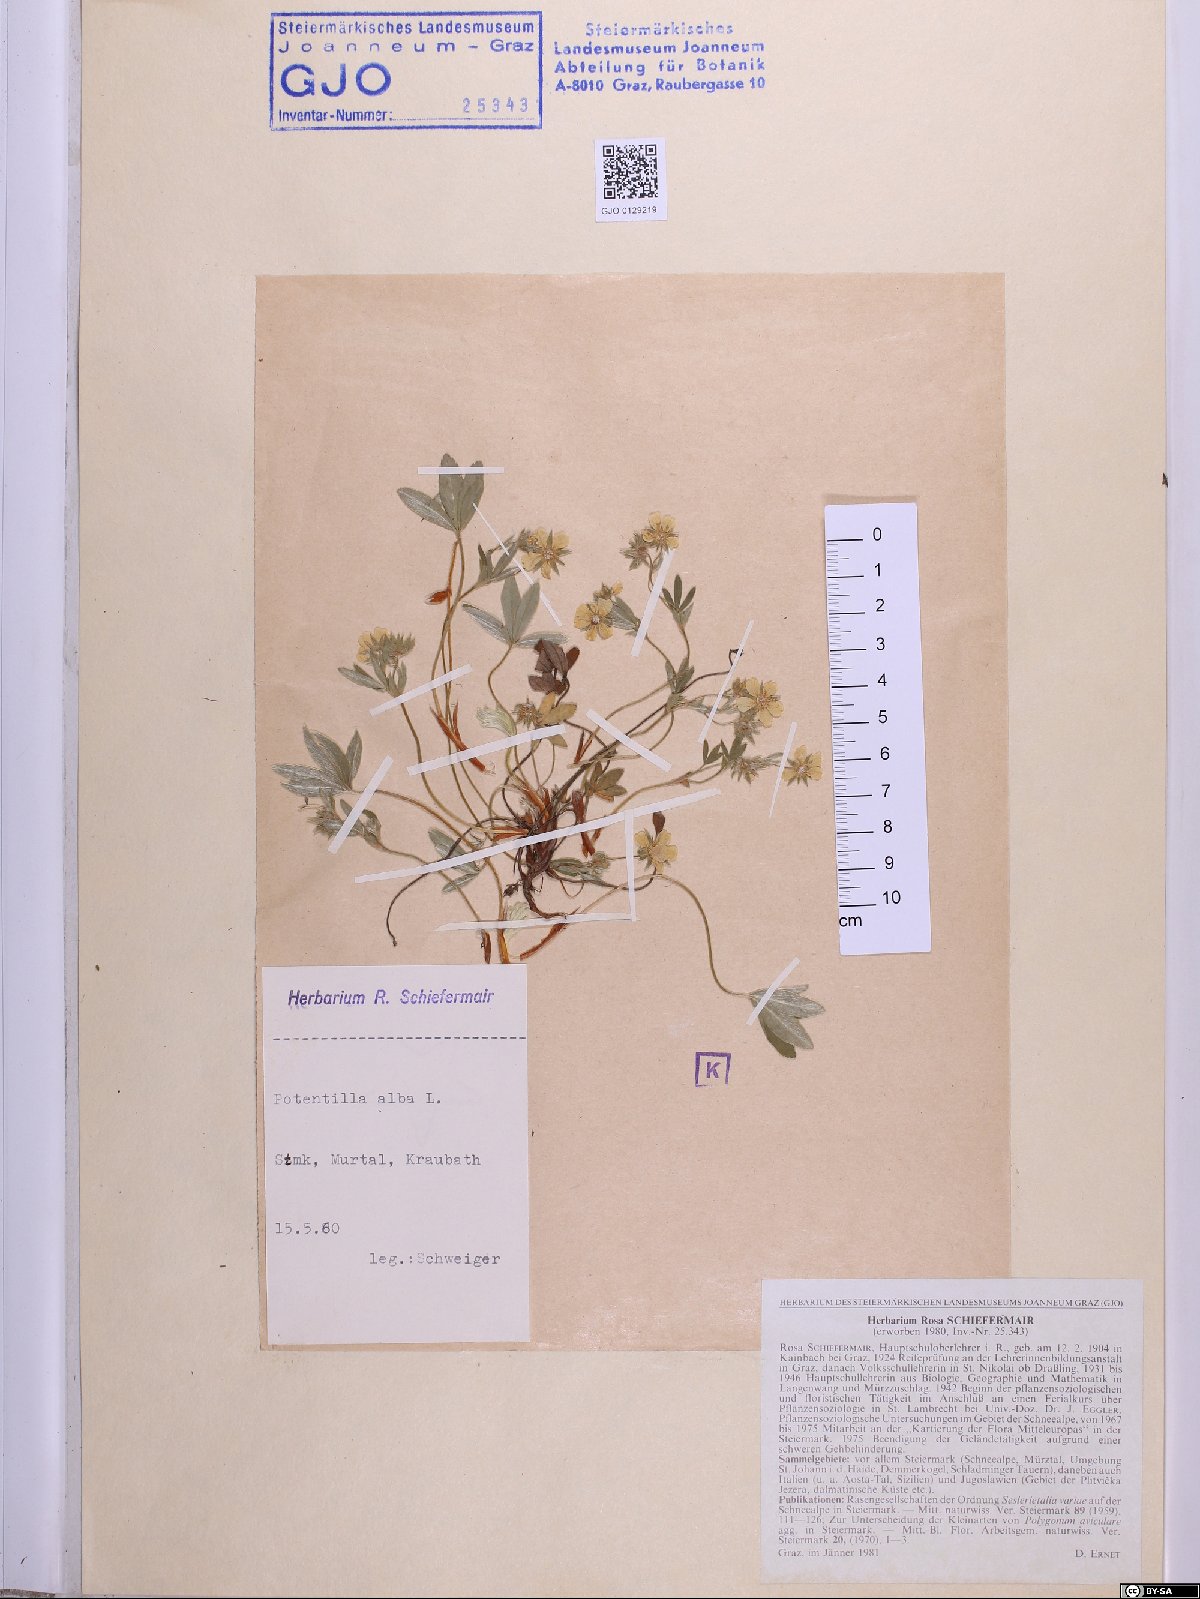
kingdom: Plantae
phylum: Tracheophyta
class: Magnoliopsida
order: Rosales
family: Rosaceae
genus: Potentilla
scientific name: Potentilla alba
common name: White cinquefoil
